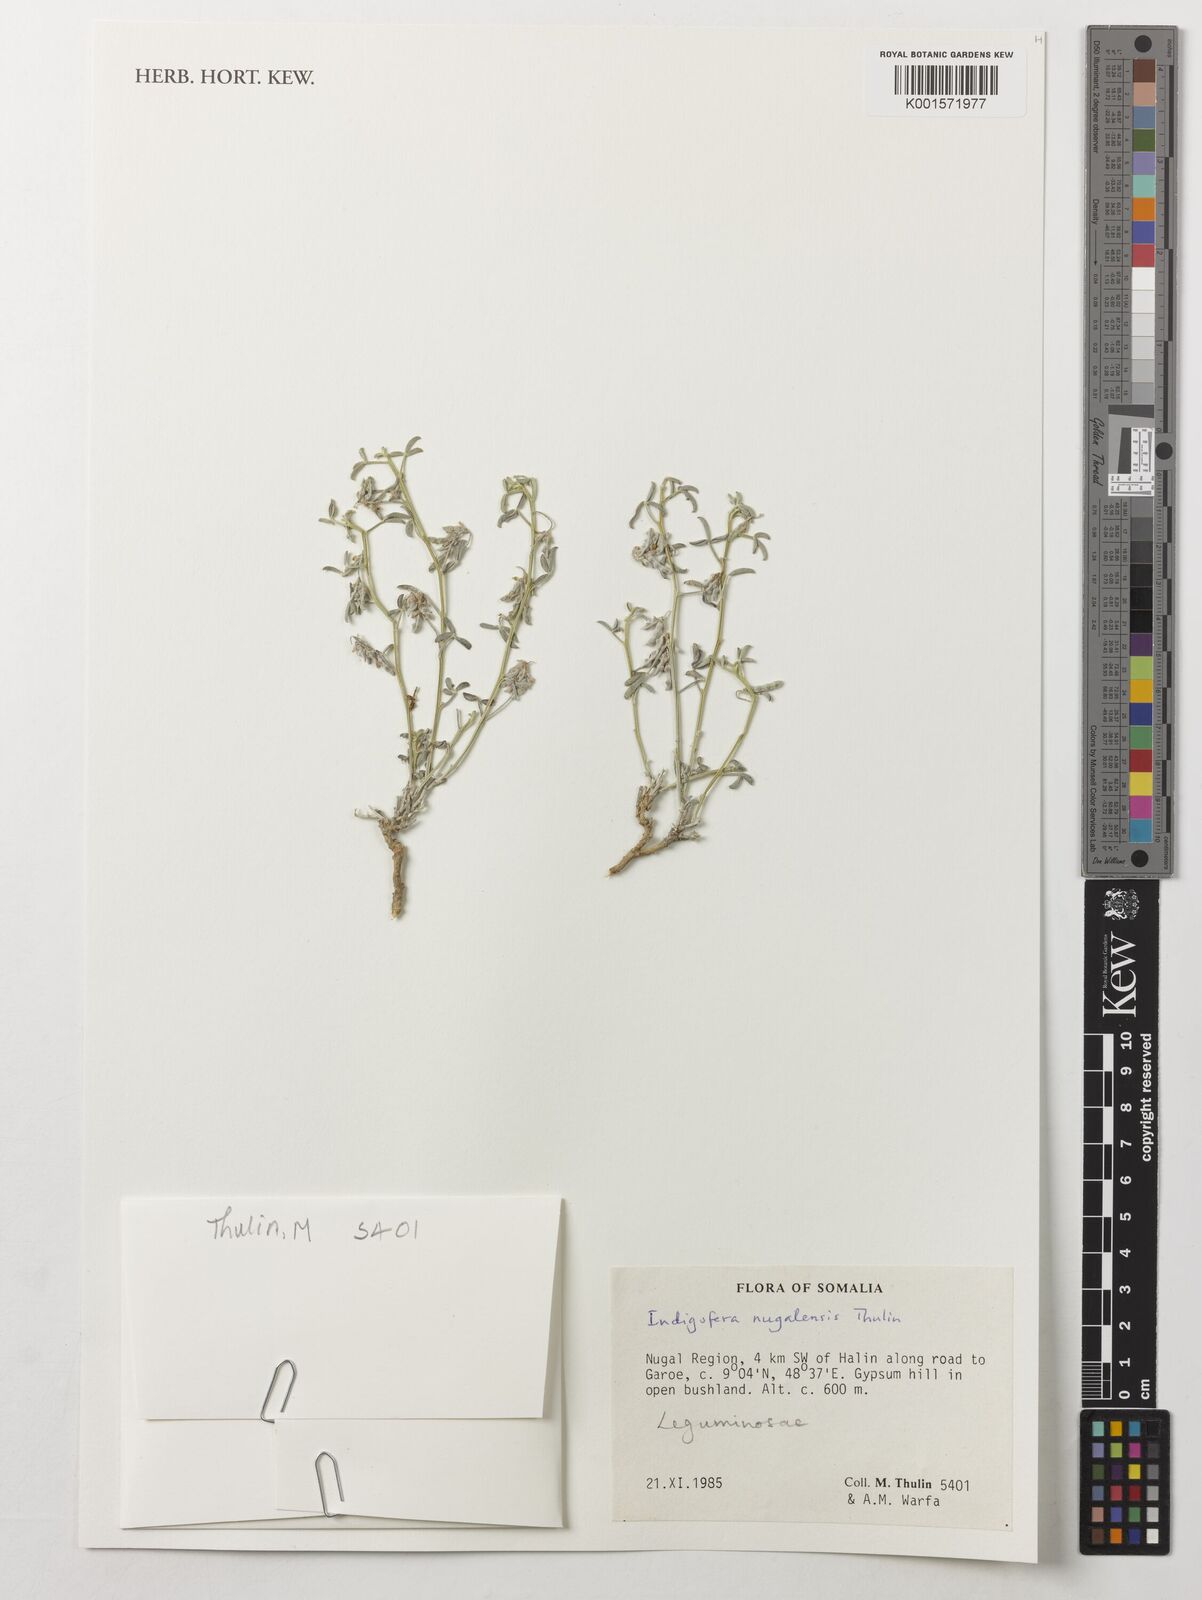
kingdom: Plantae
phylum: Tracheophyta
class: Magnoliopsida
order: Fabales
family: Fabaceae
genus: Indigofera
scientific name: Indigofera nugalensis
